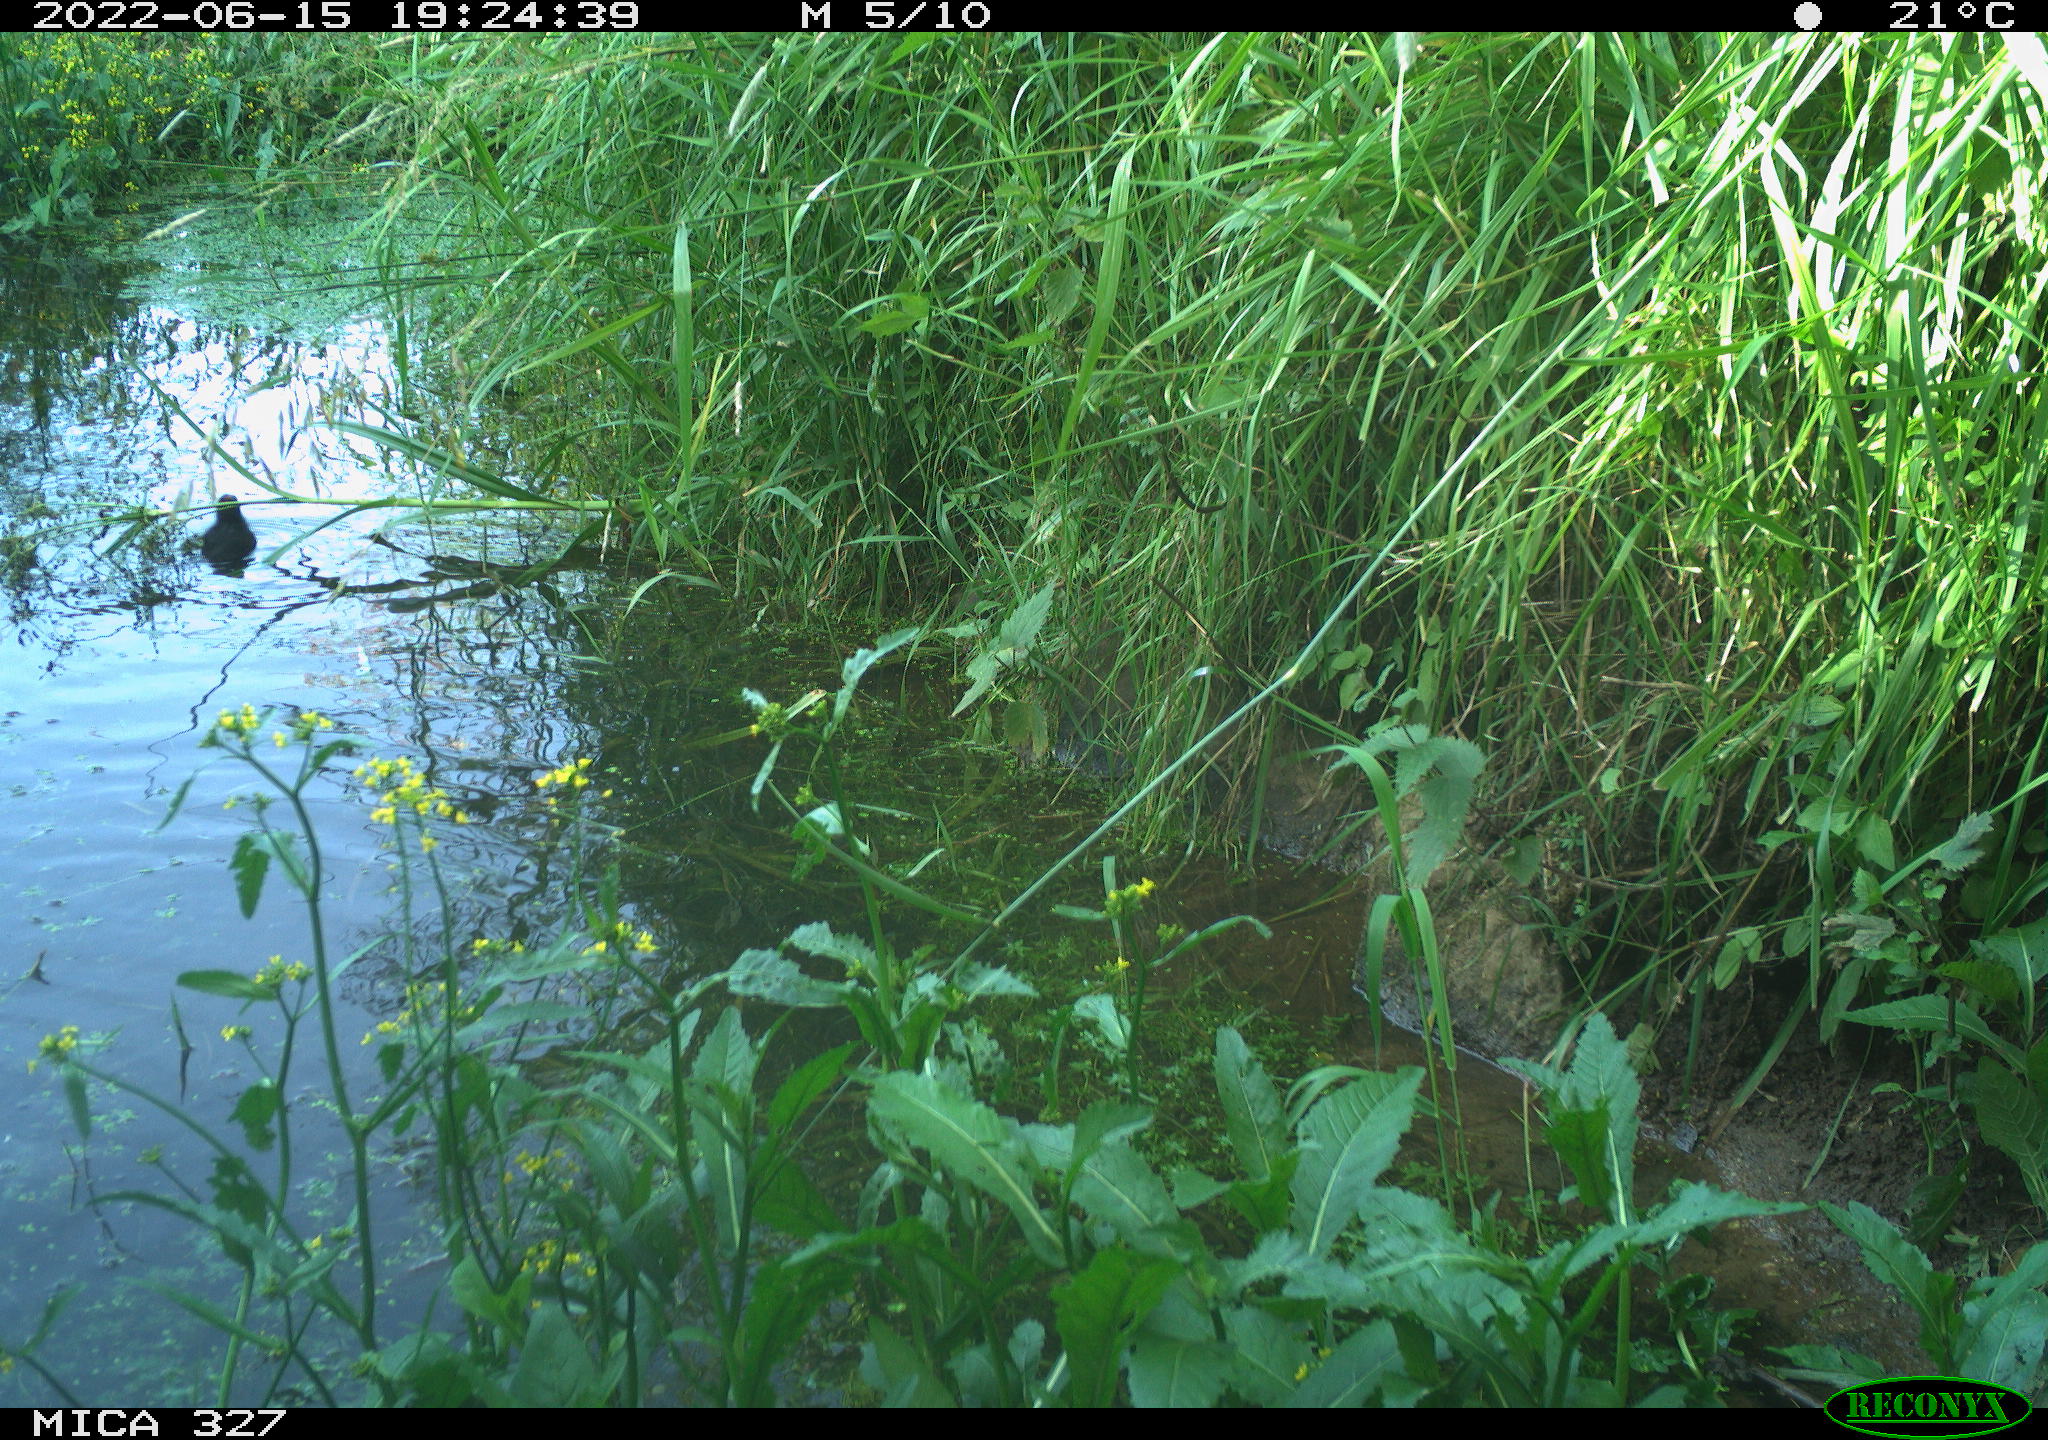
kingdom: Animalia
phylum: Chordata
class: Aves
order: Gruiformes
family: Rallidae
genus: Gallinula
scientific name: Gallinula chloropus
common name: Common moorhen
